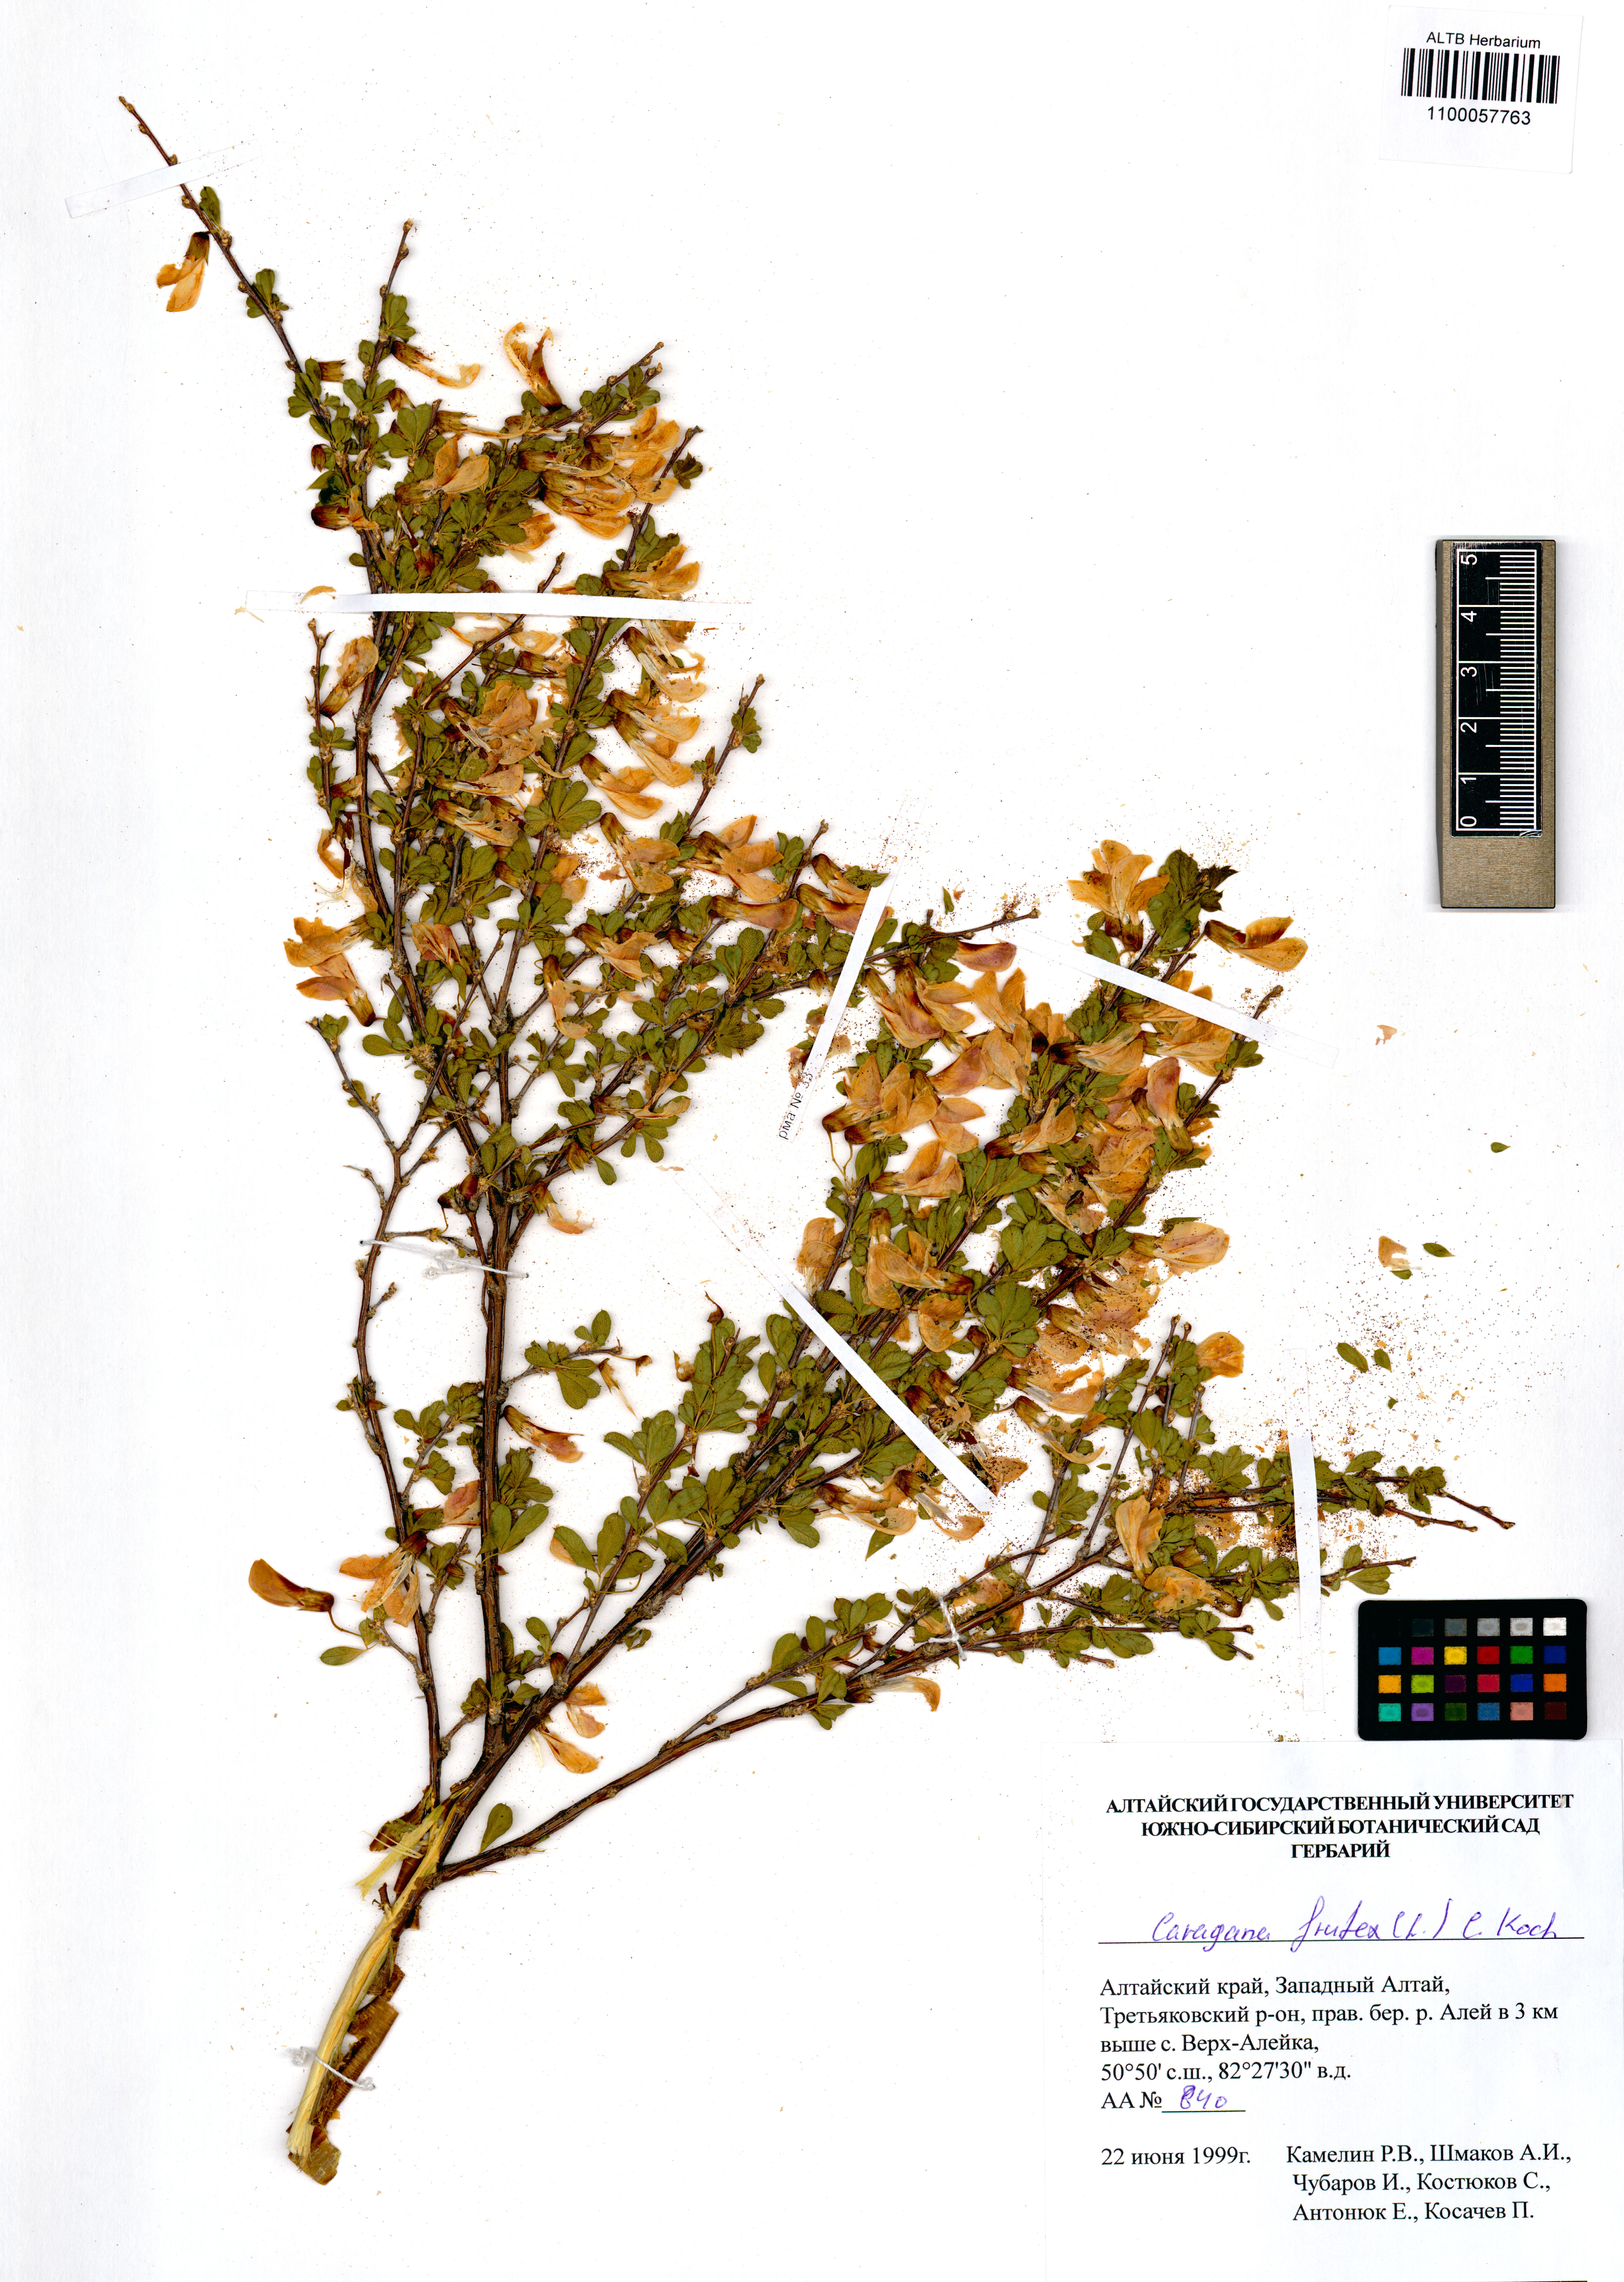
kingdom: Plantae
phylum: Tracheophyta
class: Magnoliopsida
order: Fabales
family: Fabaceae
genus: Caragana
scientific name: Caragana frutex
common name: Russian peashrub
